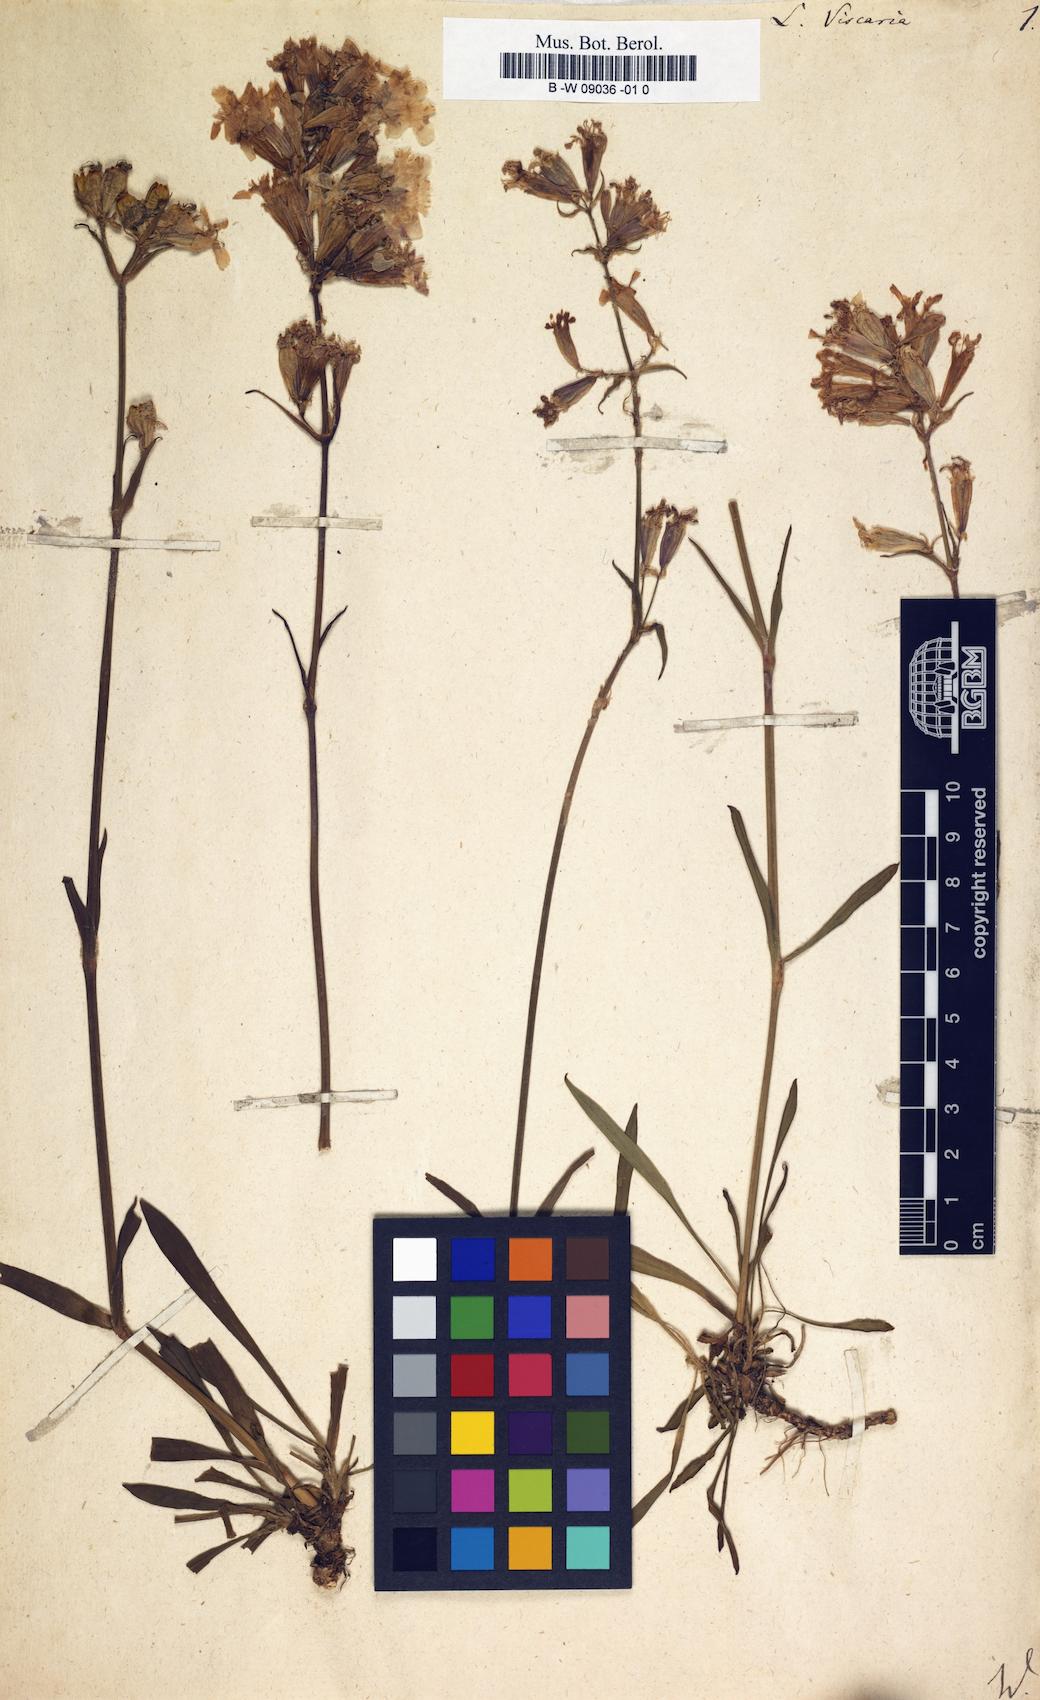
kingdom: Plantae
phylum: Tracheophyta
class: Magnoliopsida
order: Caryophyllales
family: Caryophyllaceae
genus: Viscaria
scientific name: Viscaria vulgaris
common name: Clammy campion
